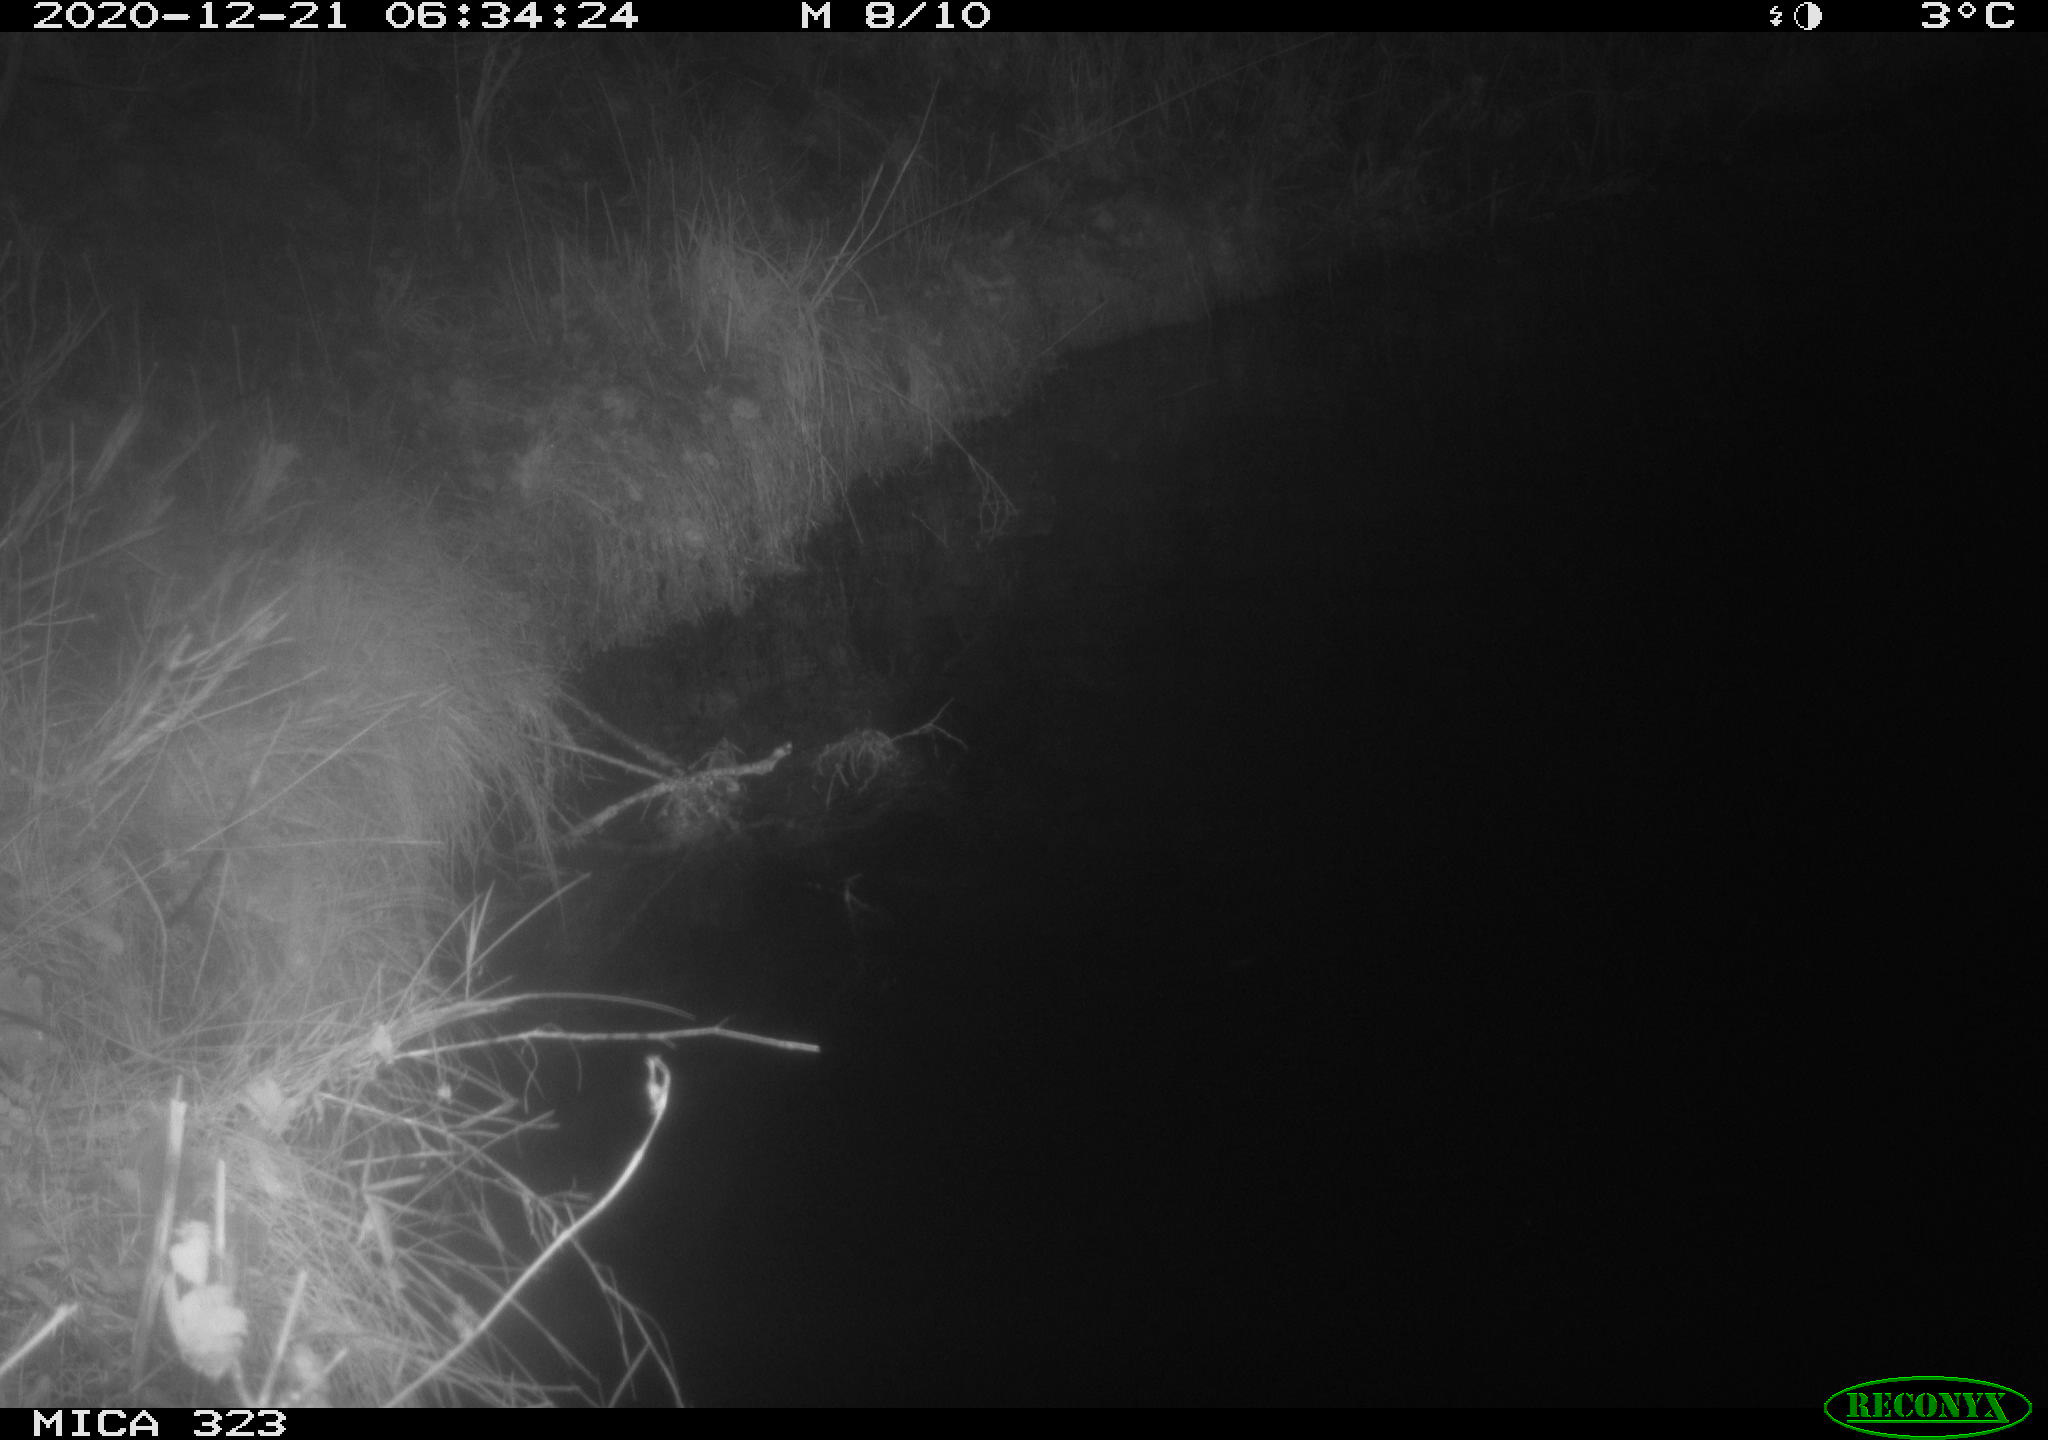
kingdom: Animalia
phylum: Chordata
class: Mammalia
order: Rodentia
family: Myocastoridae
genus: Myocastor
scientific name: Myocastor coypus
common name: Coypu
